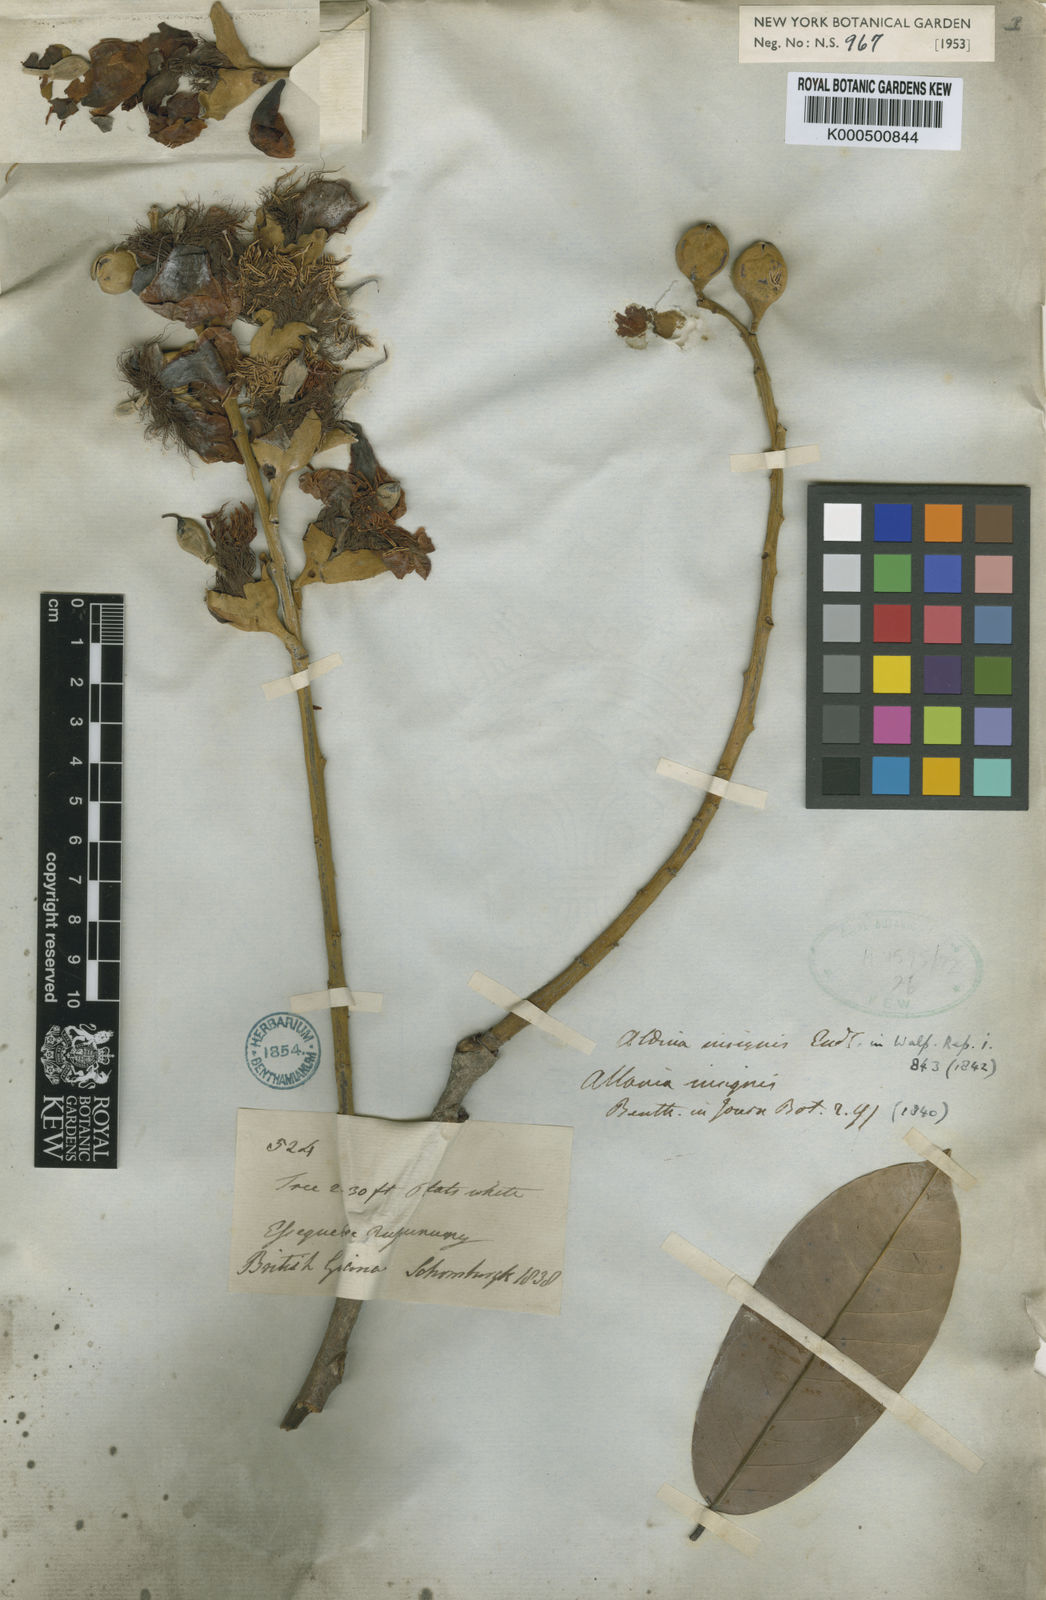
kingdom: Plantae
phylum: Tracheophyta
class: Magnoliopsida
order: Fabales
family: Fabaceae
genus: Aldina
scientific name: Aldina insignis
